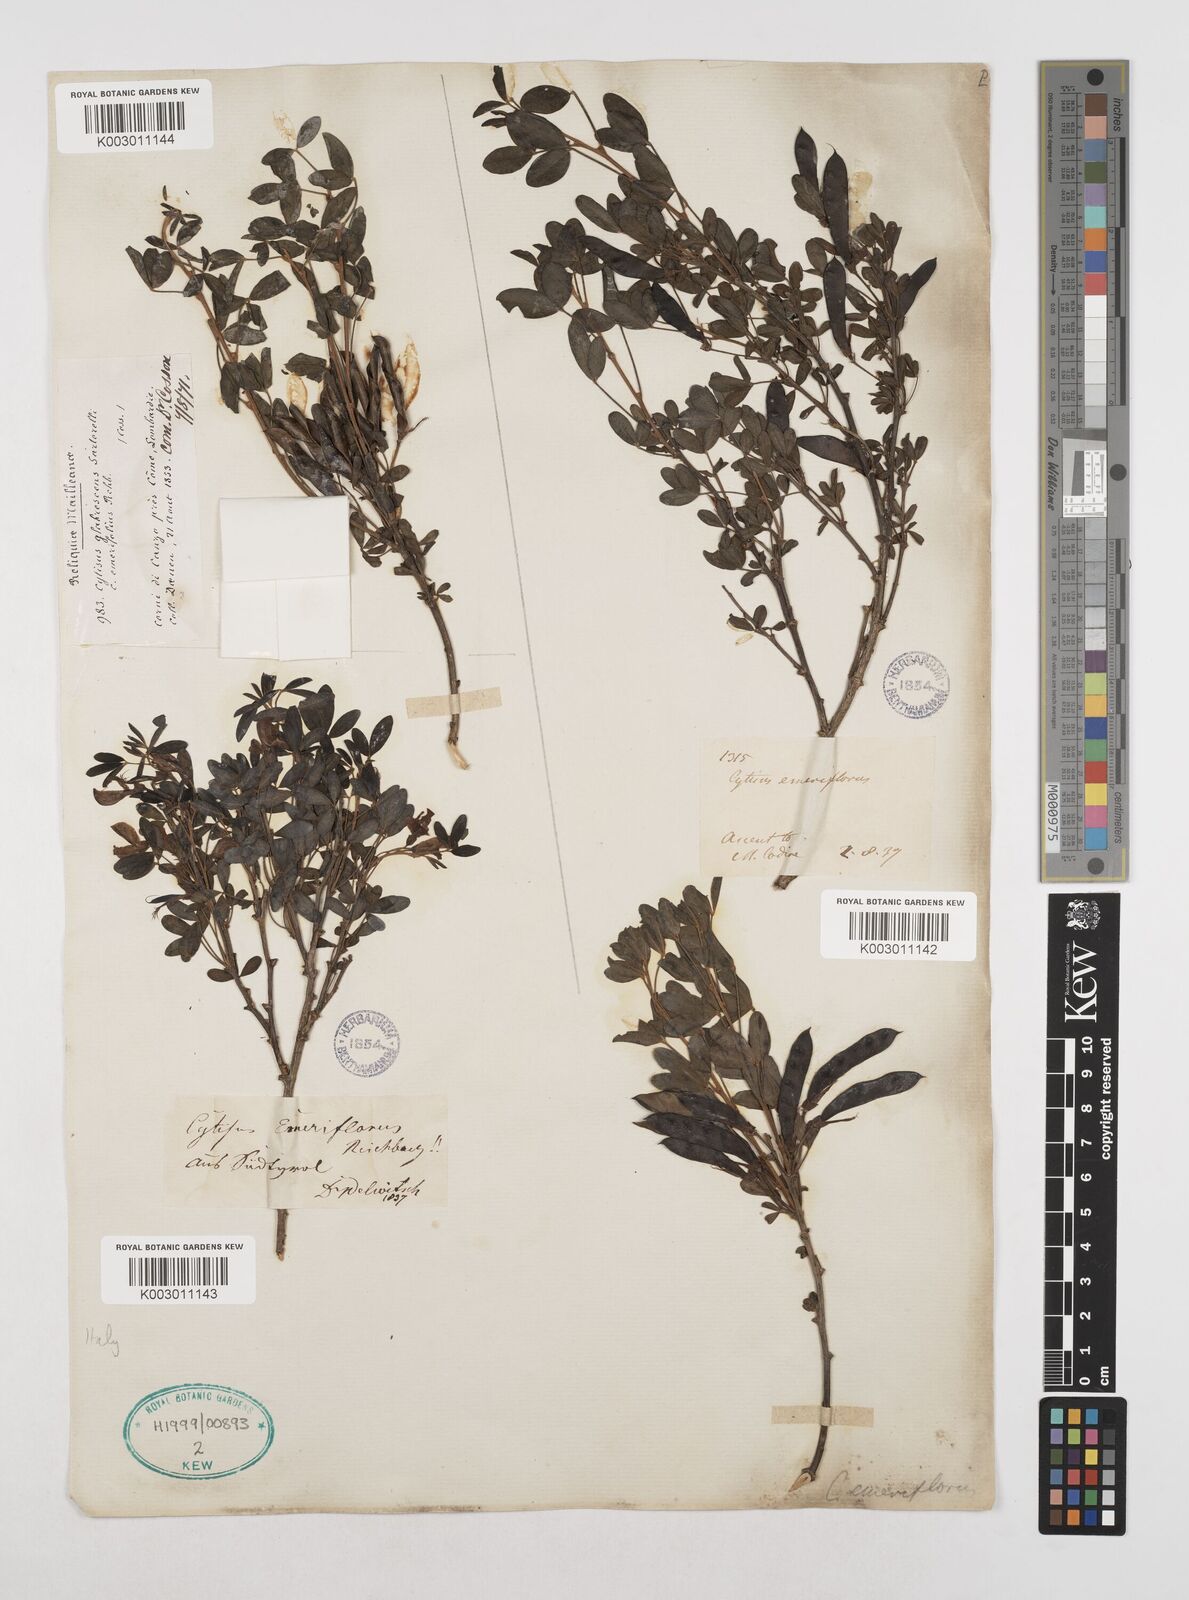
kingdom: Plantae
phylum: Tracheophyta
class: Magnoliopsida
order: Fabales
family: Fabaceae
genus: Cytisus
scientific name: Cytisus emeriflorus
